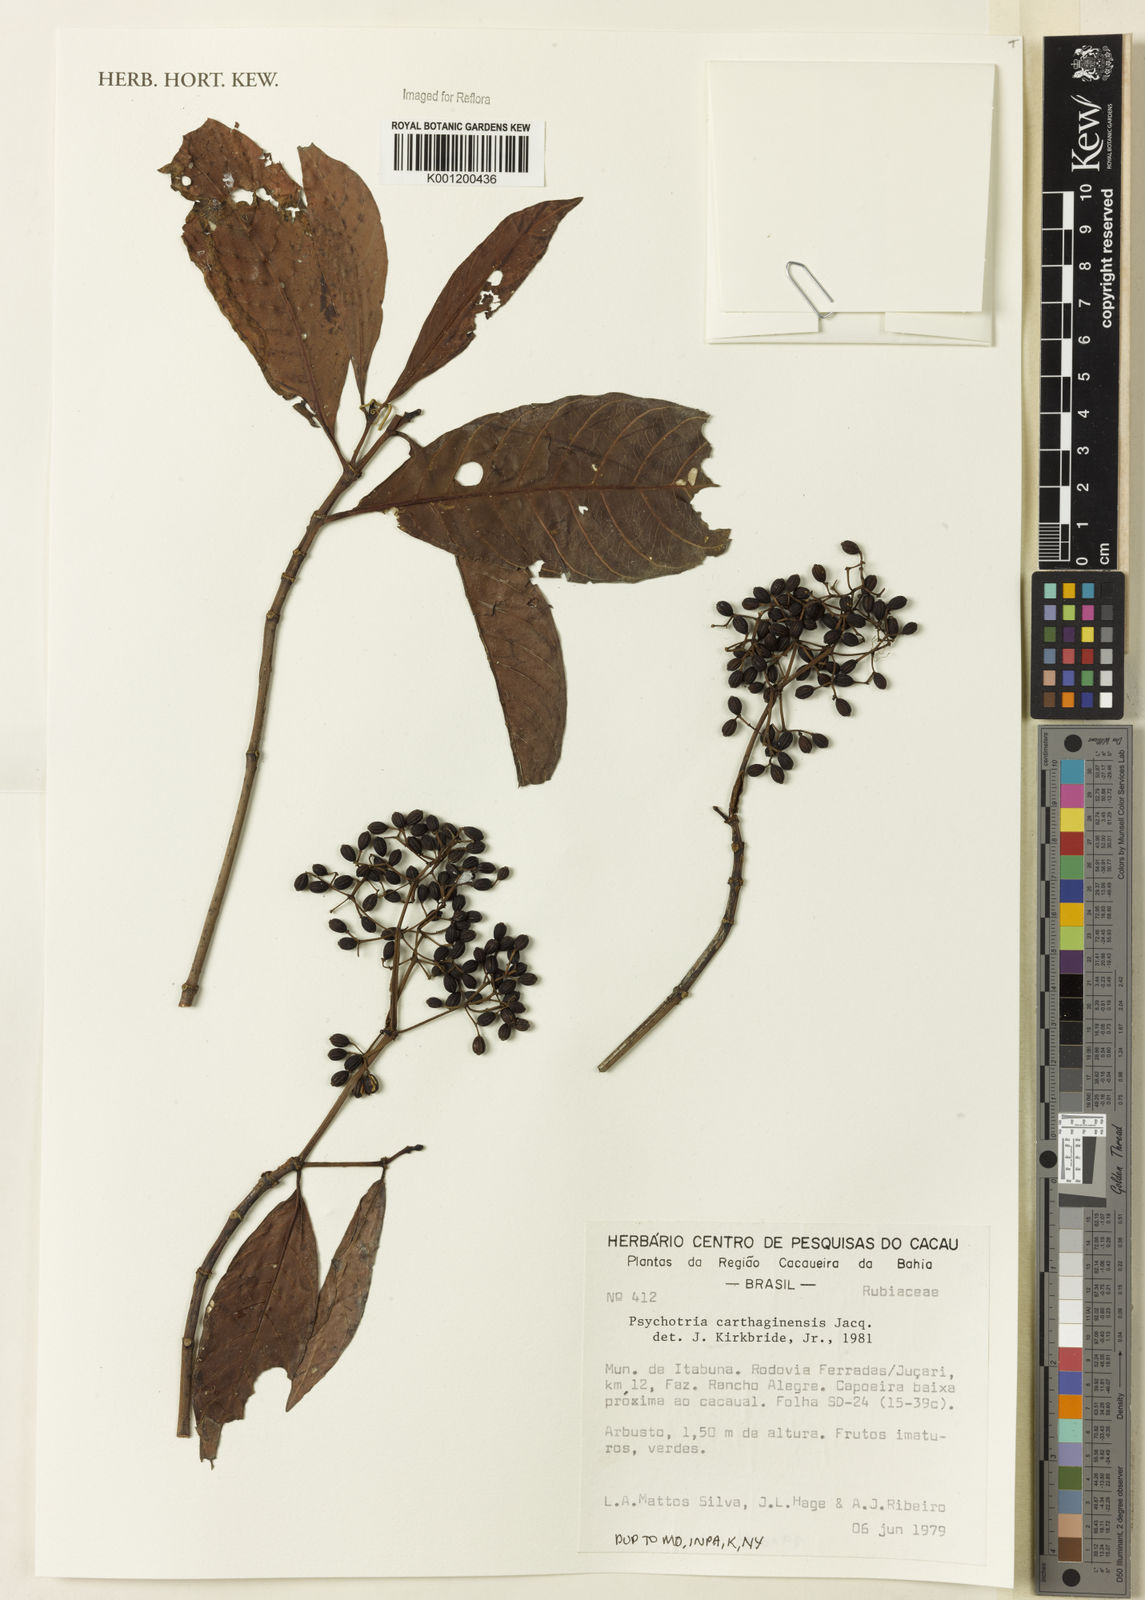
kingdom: Plantae
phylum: Tracheophyta
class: Magnoliopsida
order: Gentianales
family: Rubiaceae
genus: Psychotria
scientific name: Psychotria carthagenensis
